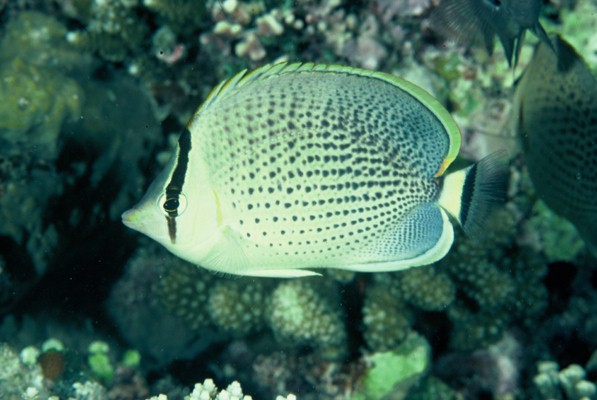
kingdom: Animalia
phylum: Chordata
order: Perciformes
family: Chaetodontidae
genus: Chaetodon
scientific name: Chaetodon guttatissimus
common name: Spotted butterflyfish
